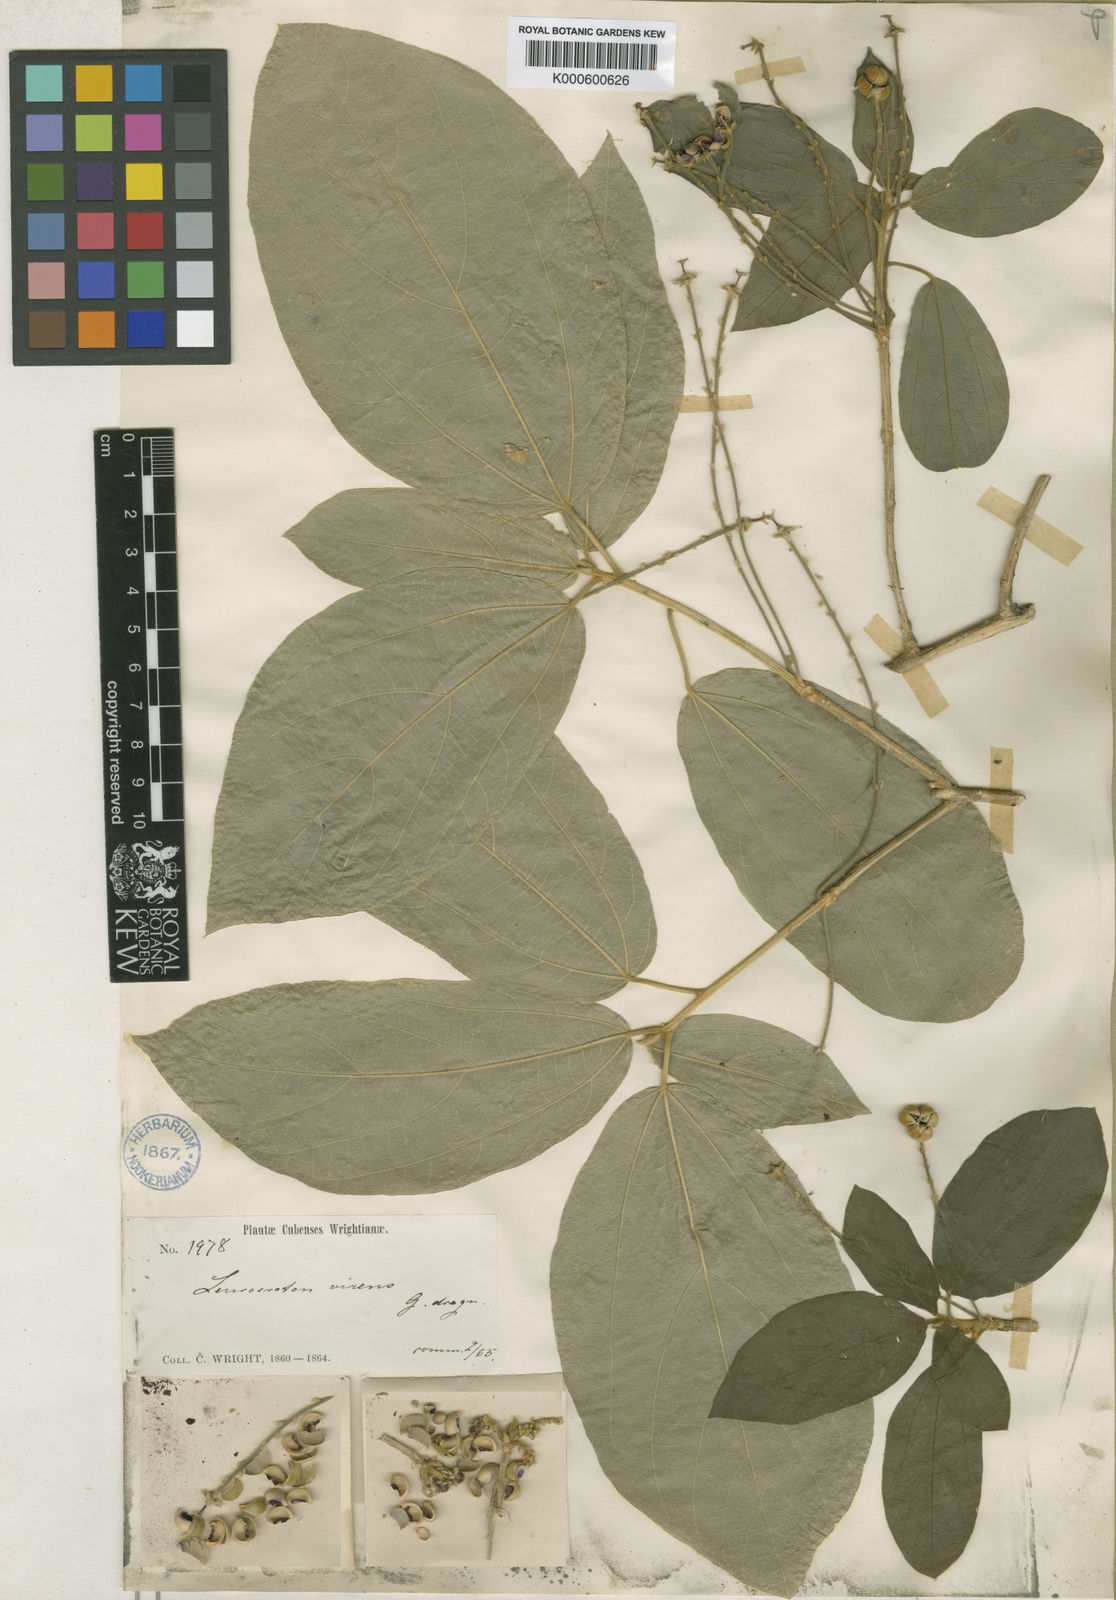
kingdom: Plantae
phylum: Tracheophyta
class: Magnoliopsida
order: Malpighiales
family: Euphorbiaceae
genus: Leucocroton
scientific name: Leucocroton virens
